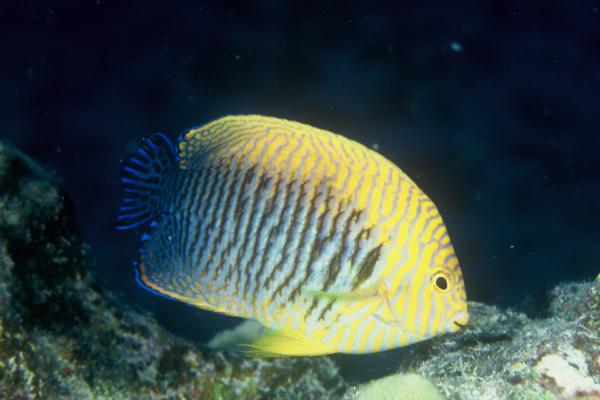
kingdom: Animalia
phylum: Chordata
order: Perciformes
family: Pomacanthidae
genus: Centropyge
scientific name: Centropyge potteri
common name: Potter's angelfish
